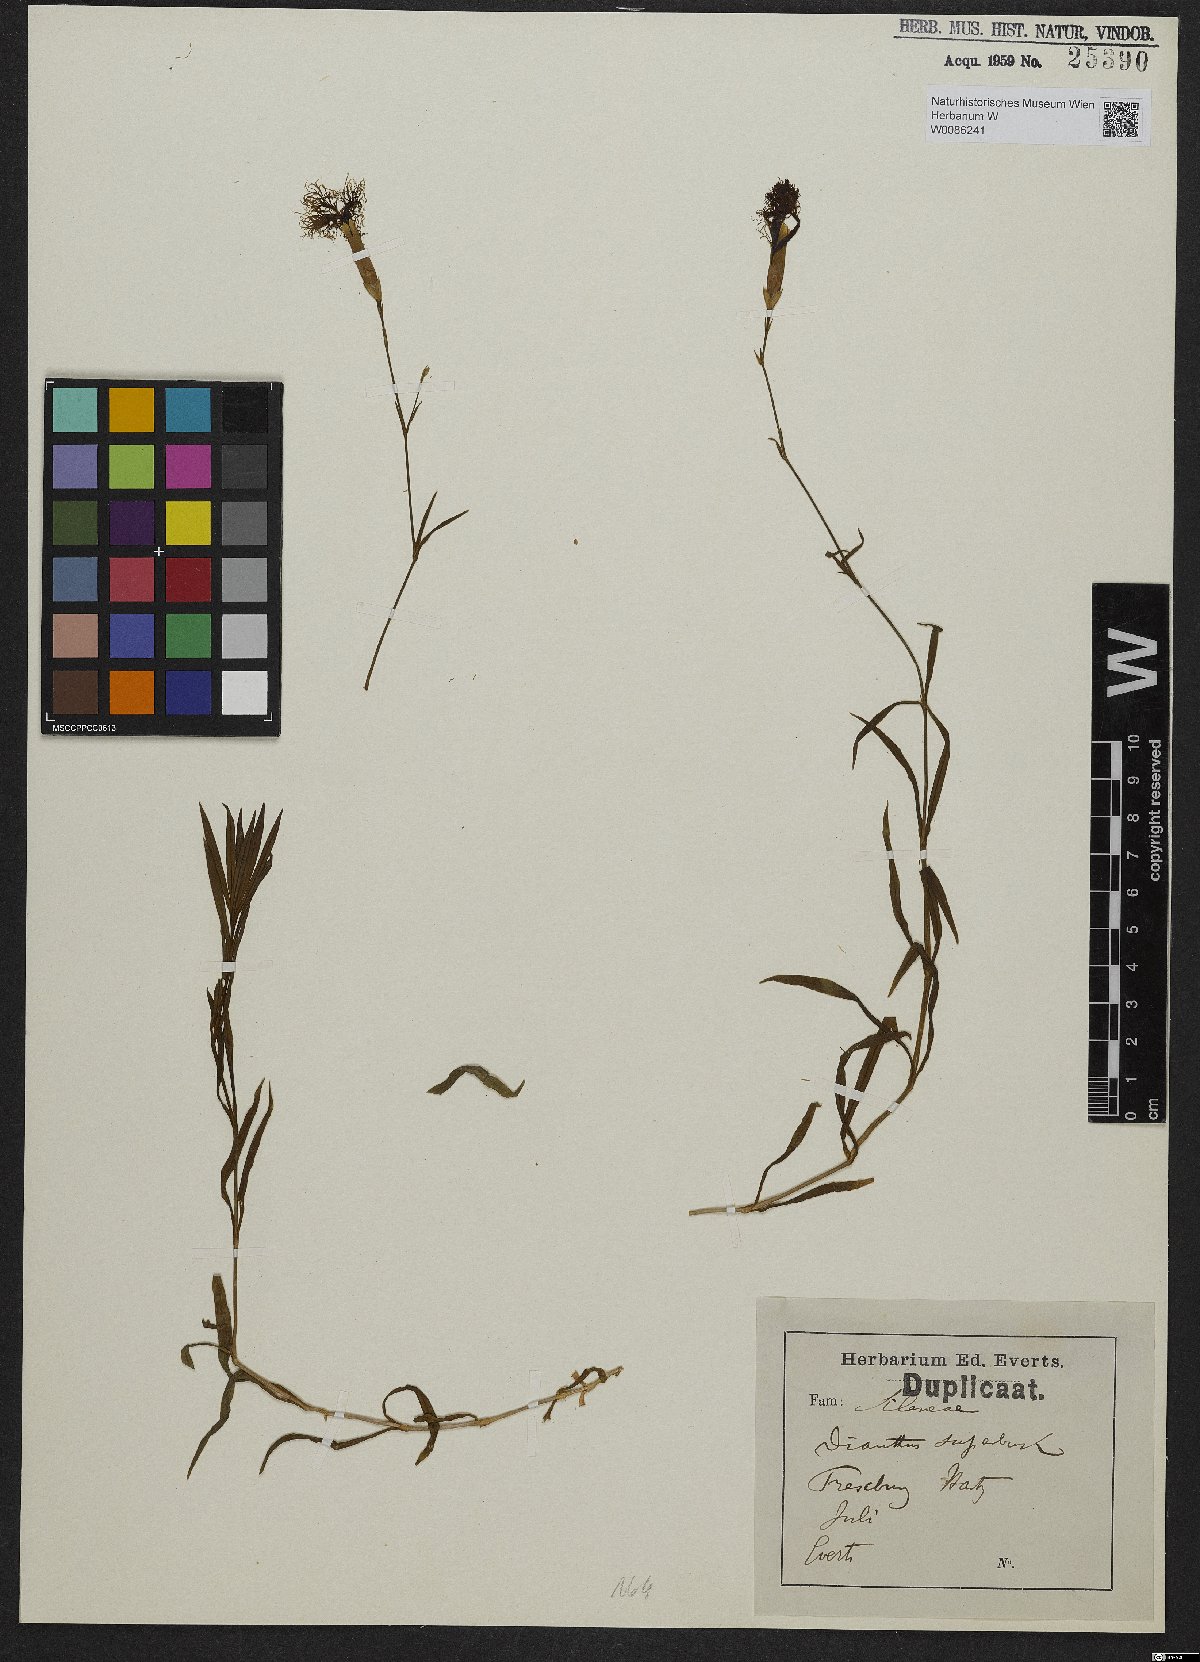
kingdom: Plantae
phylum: Tracheophyta
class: Magnoliopsida
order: Caryophyllales
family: Caryophyllaceae
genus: Dianthus
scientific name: Dianthus superbus
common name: Fringed pink
